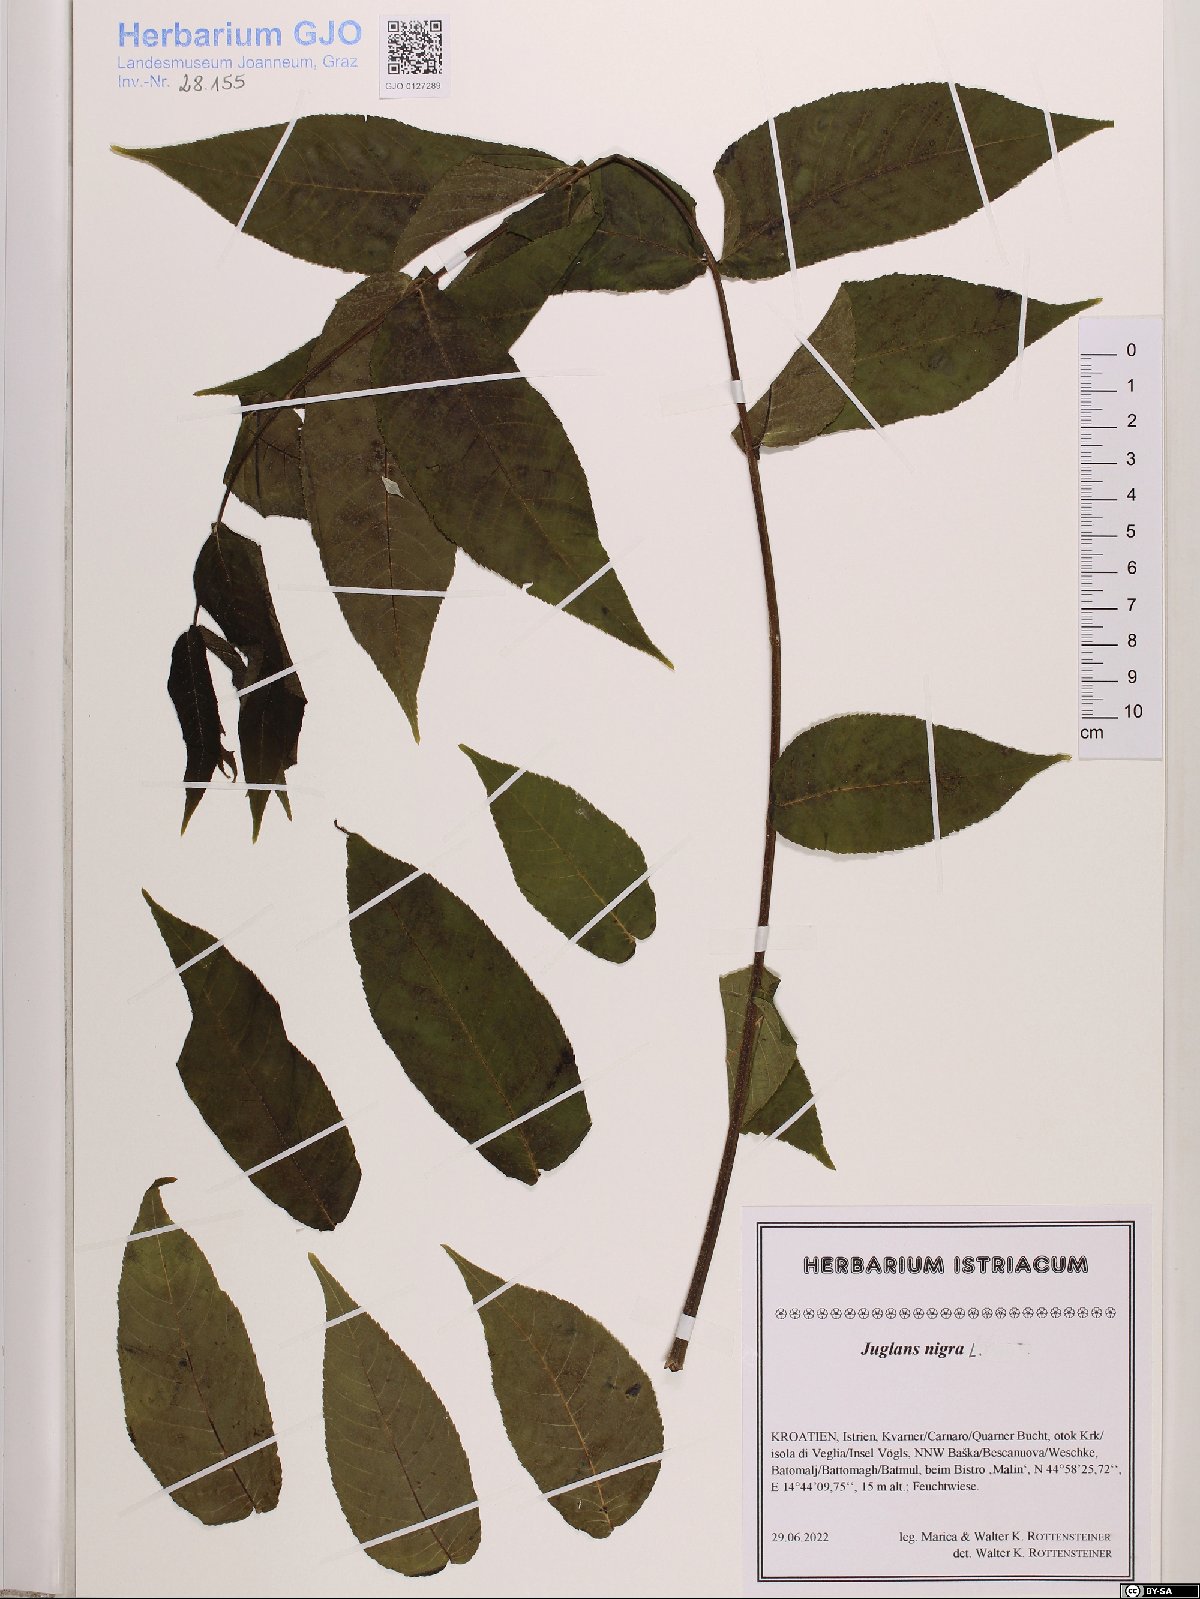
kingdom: Plantae
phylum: Tracheophyta
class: Magnoliopsida
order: Fagales
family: Juglandaceae
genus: Juglans
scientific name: Juglans nigra
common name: Black walnut
